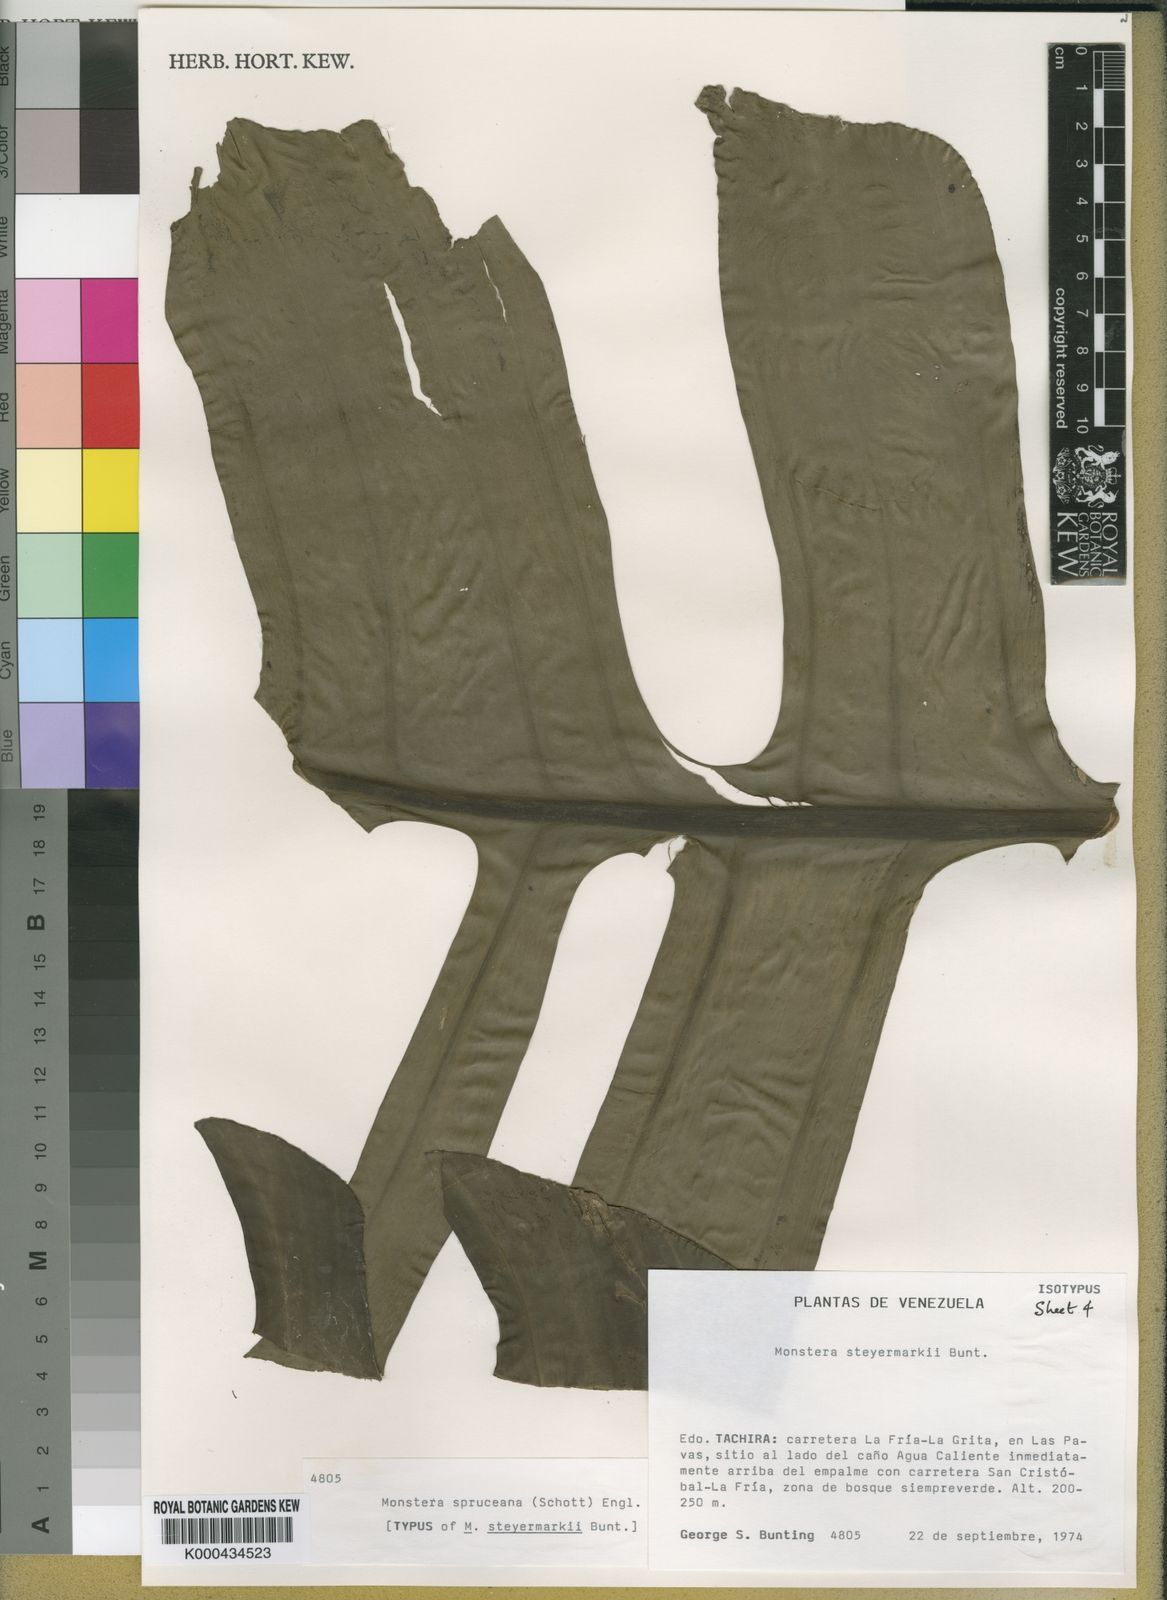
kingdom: Plantae
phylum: Tracheophyta
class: Liliopsida
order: Alismatales
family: Araceae
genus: Monstera
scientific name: Monstera spruceana
